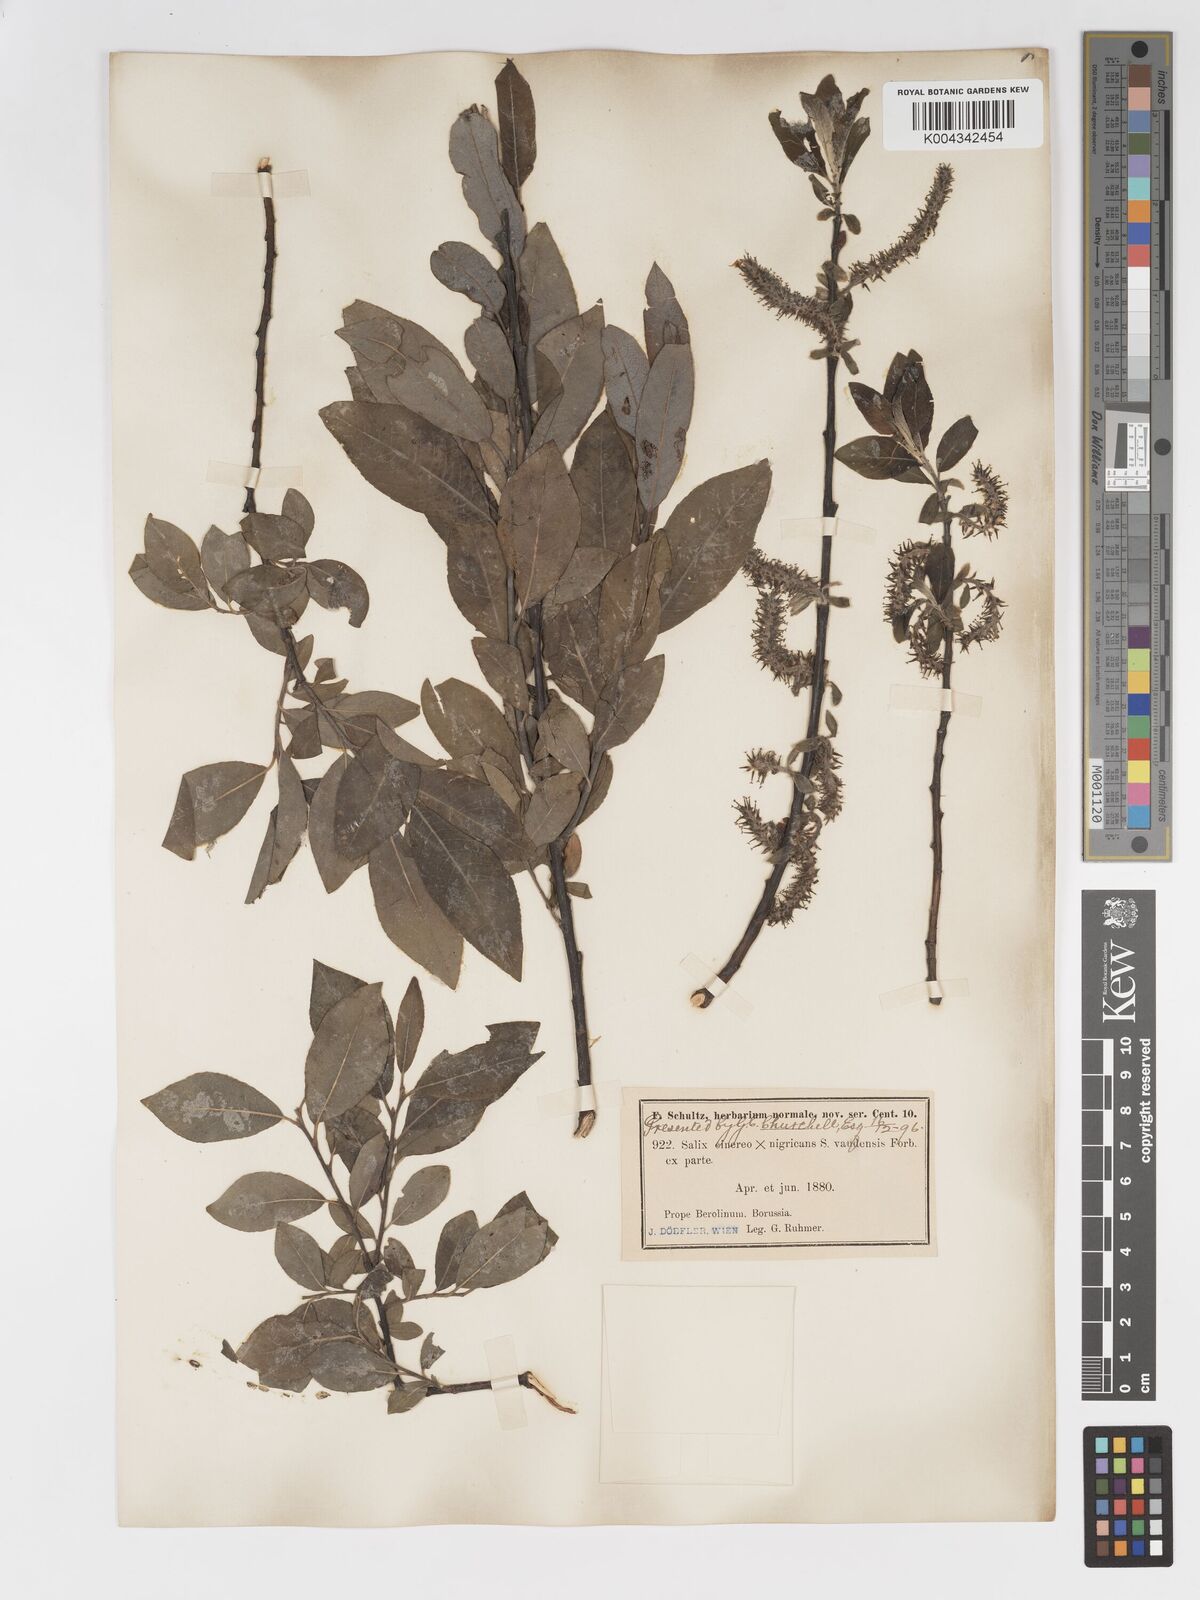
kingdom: Plantae
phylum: Tracheophyta
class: Magnoliopsida
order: Malpighiales
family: Salicaceae
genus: Salix
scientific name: Salix
